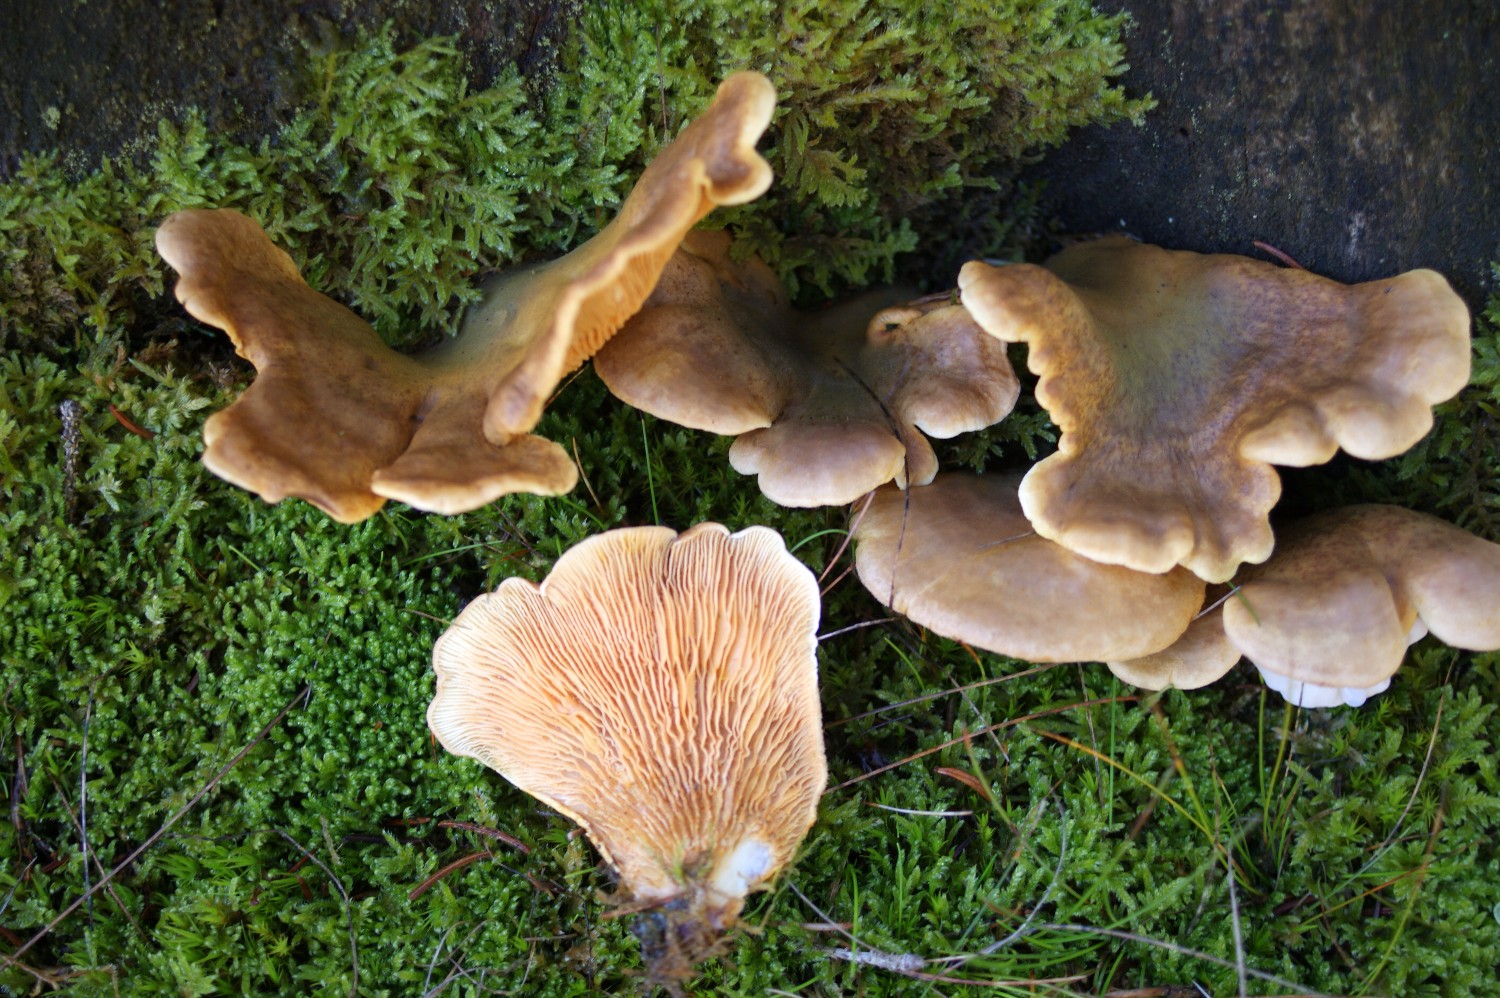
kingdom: Fungi
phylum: Basidiomycota
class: Agaricomycetes
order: Boletales
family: Tapinellaceae
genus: Tapinella
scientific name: Tapinella panuoides
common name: tømmer-viftesvamp
